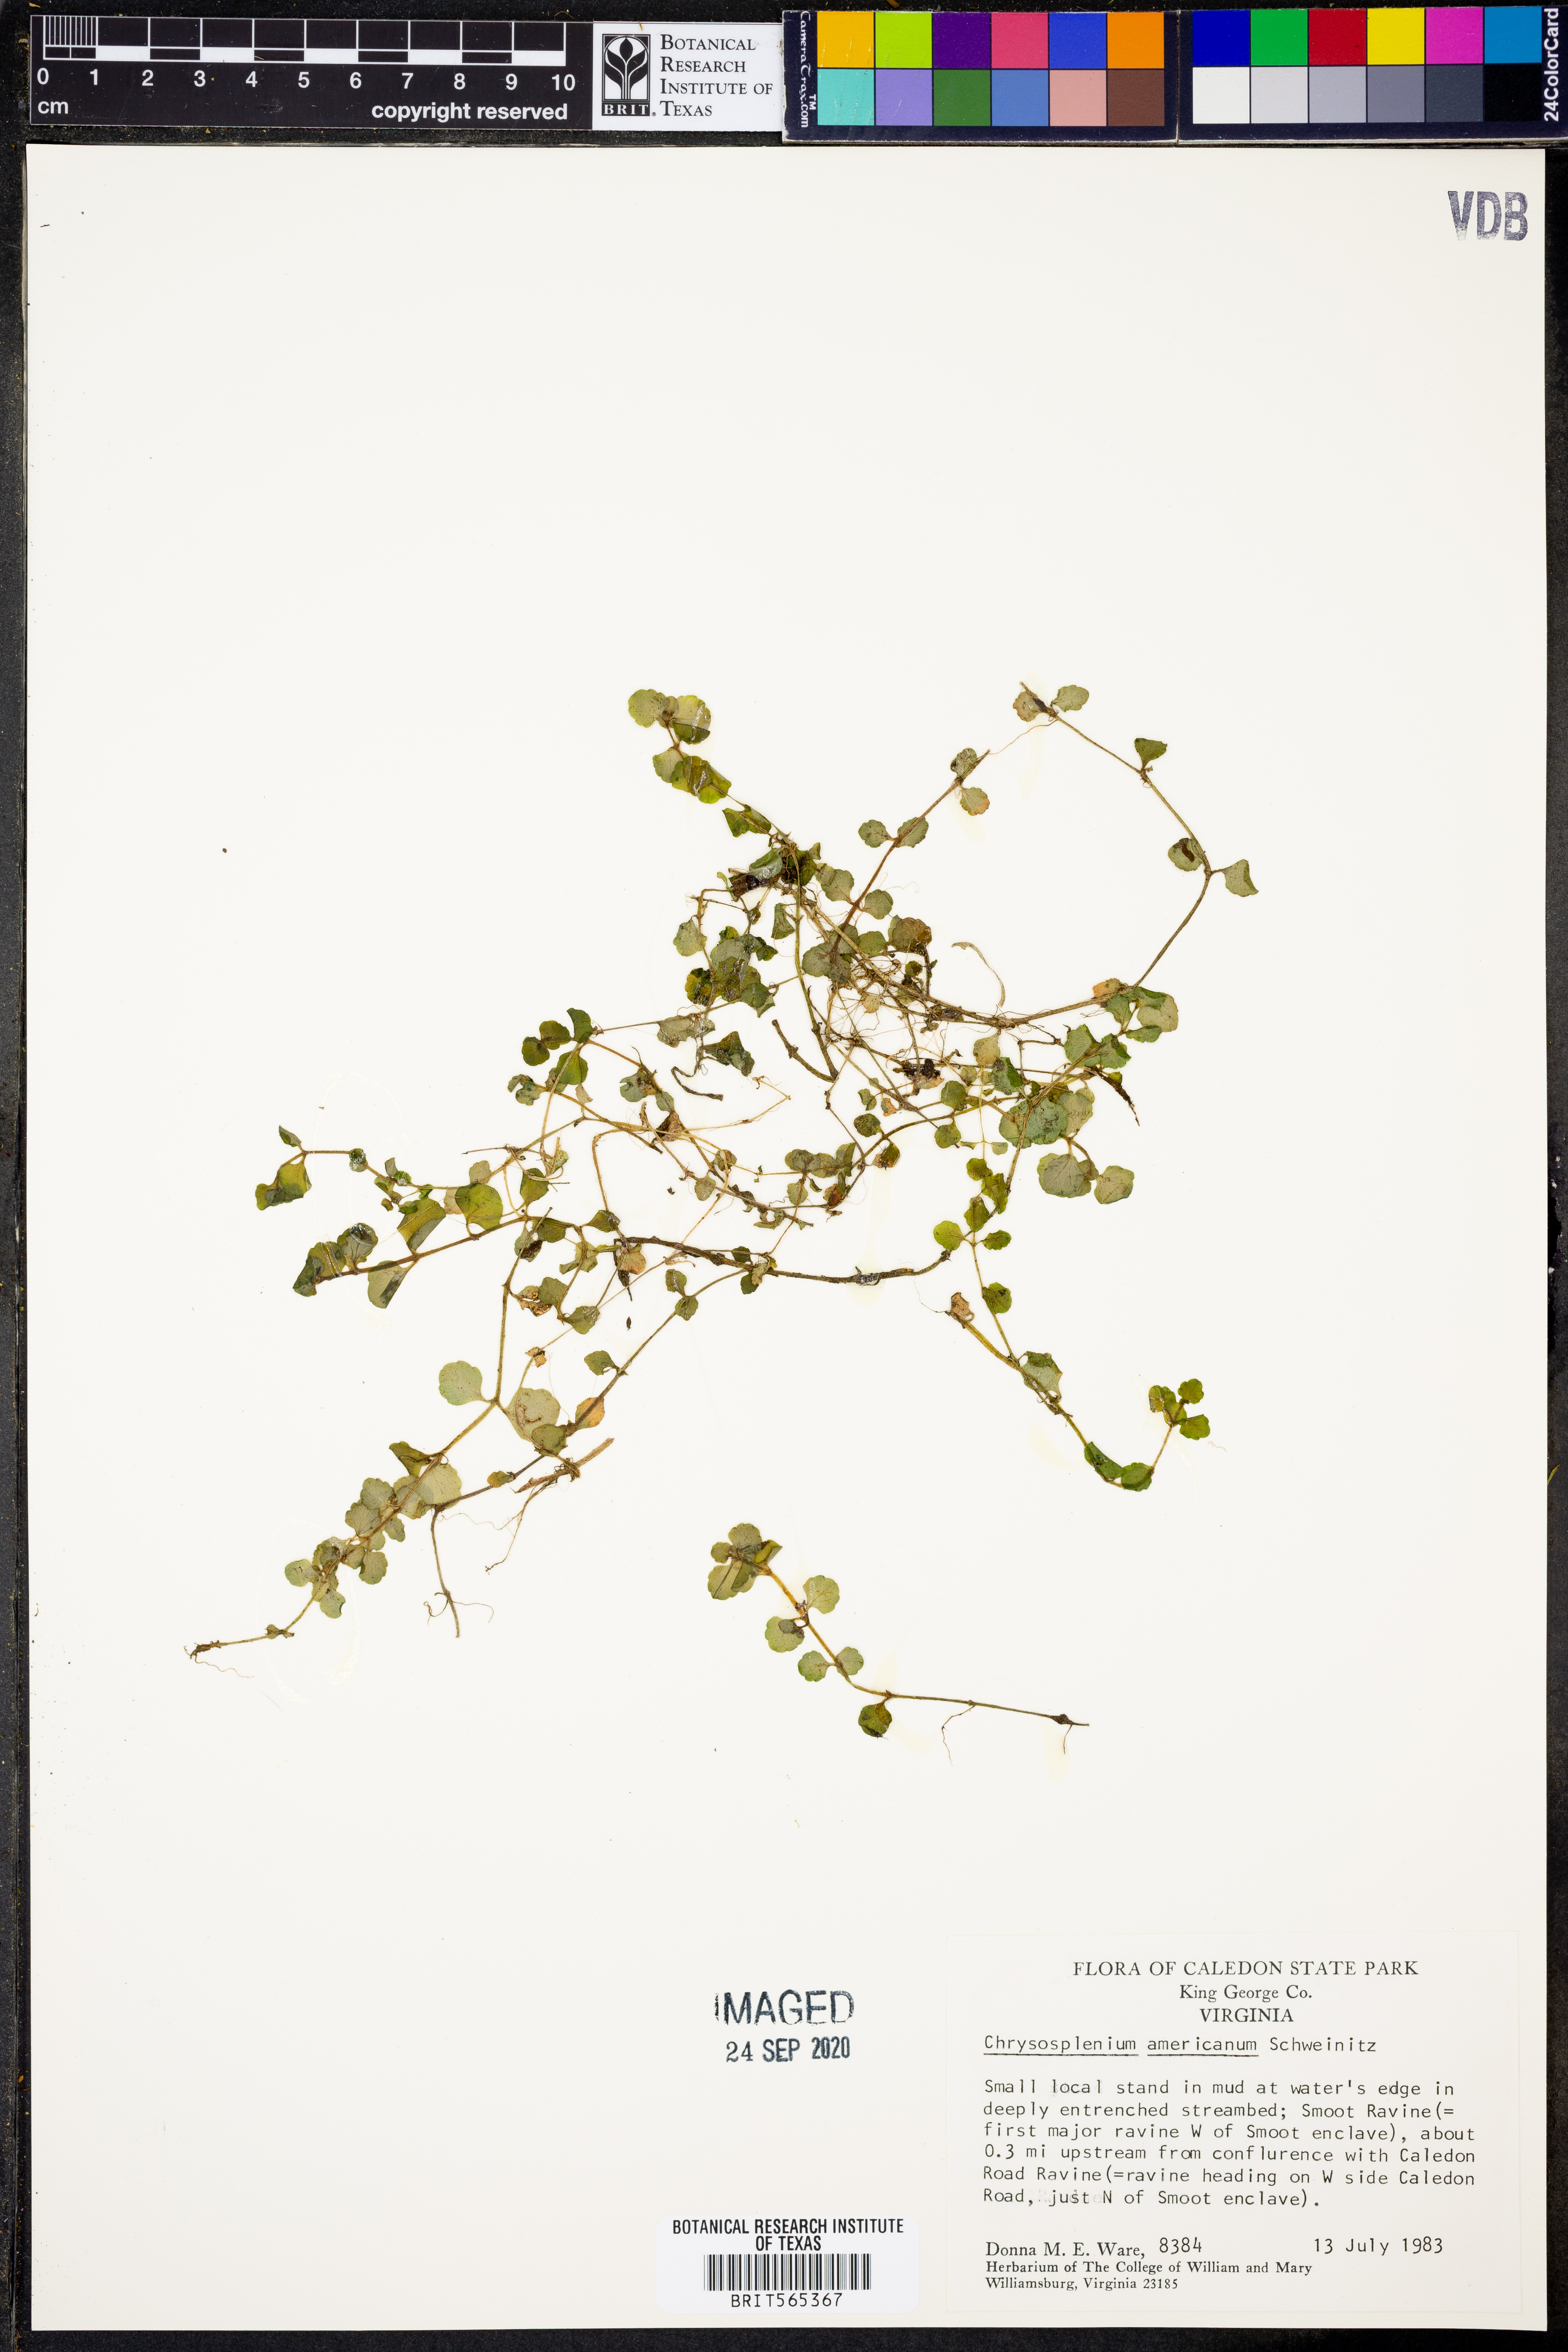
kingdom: Plantae
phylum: Tracheophyta
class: Magnoliopsida
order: Saxifragales
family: Saxifragaceae
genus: Chrysosplenium
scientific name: Chrysosplenium americanum
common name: American golden-saxifrage
